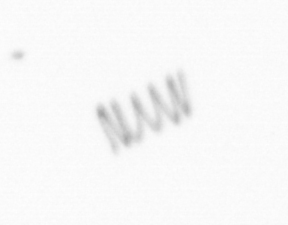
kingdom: Chromista
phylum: Ochrophyta
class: Bacillariophyceae
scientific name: Bacillariophyceae
